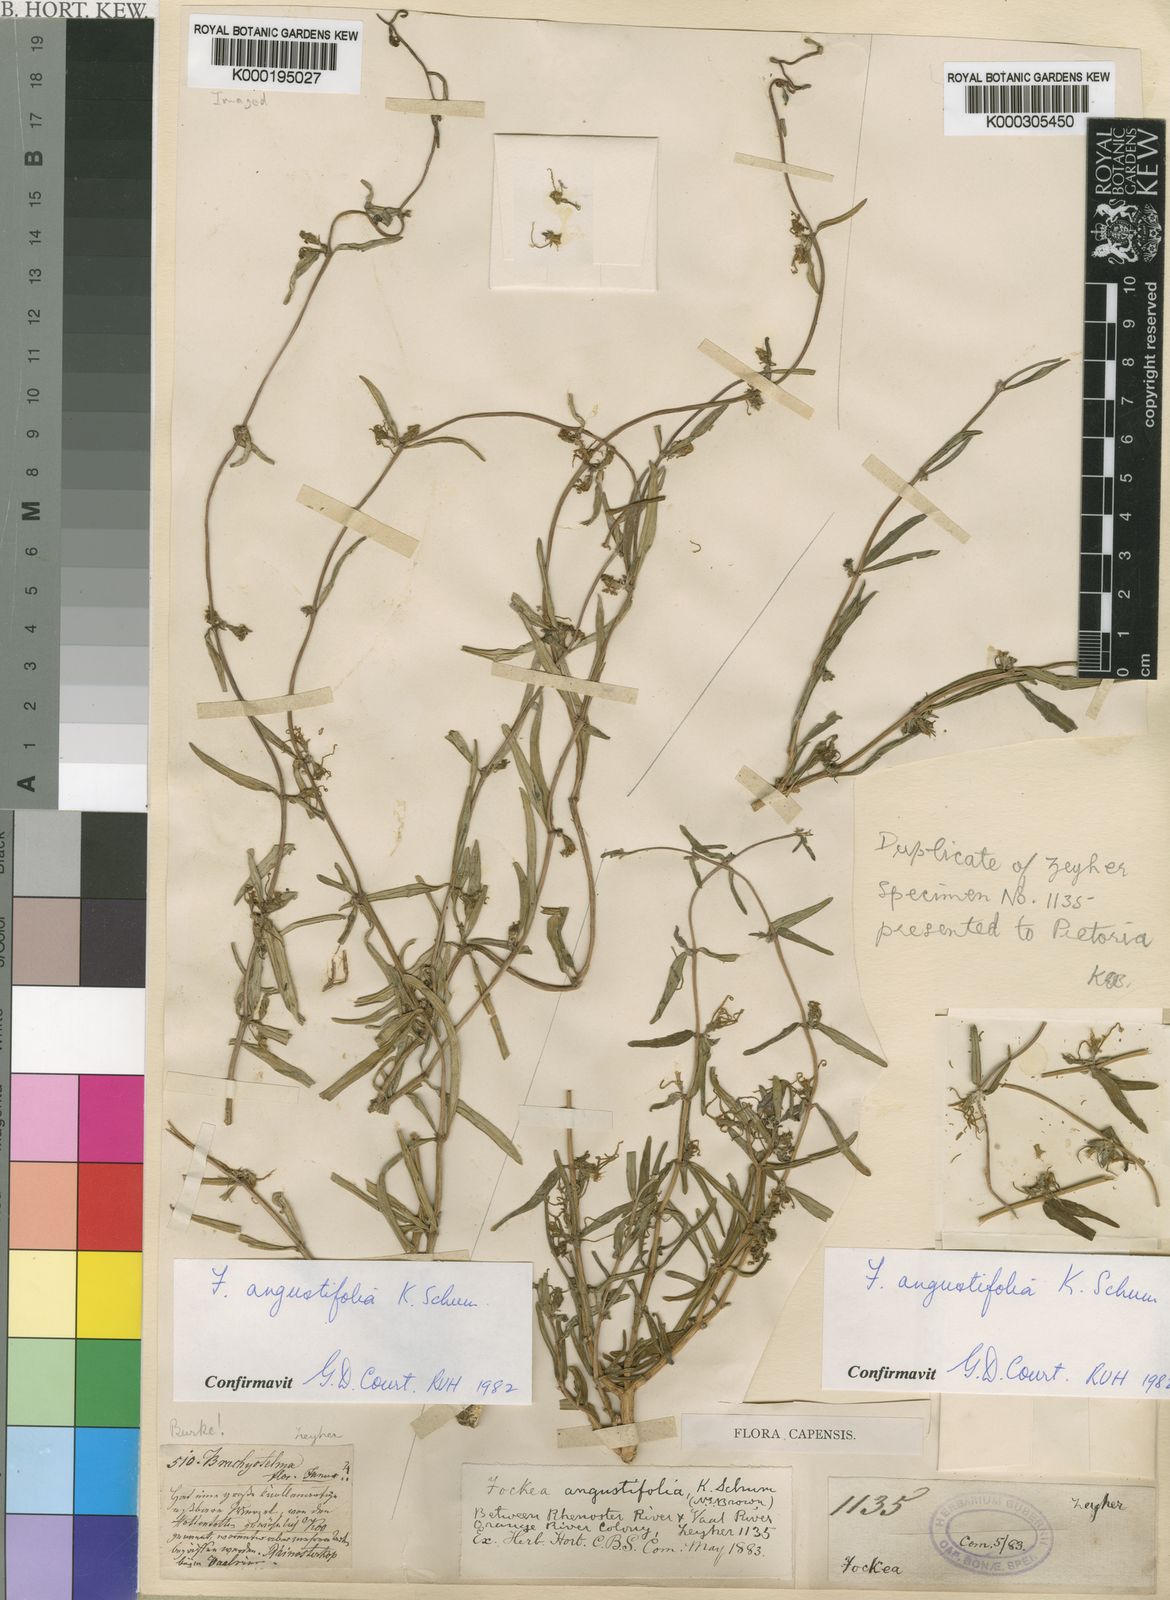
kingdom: Plantae
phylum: Tracheophyta
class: Magnoliopsida
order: Gentianales
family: Apocynaceae
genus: Fockea
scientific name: Fockea angustifolia
